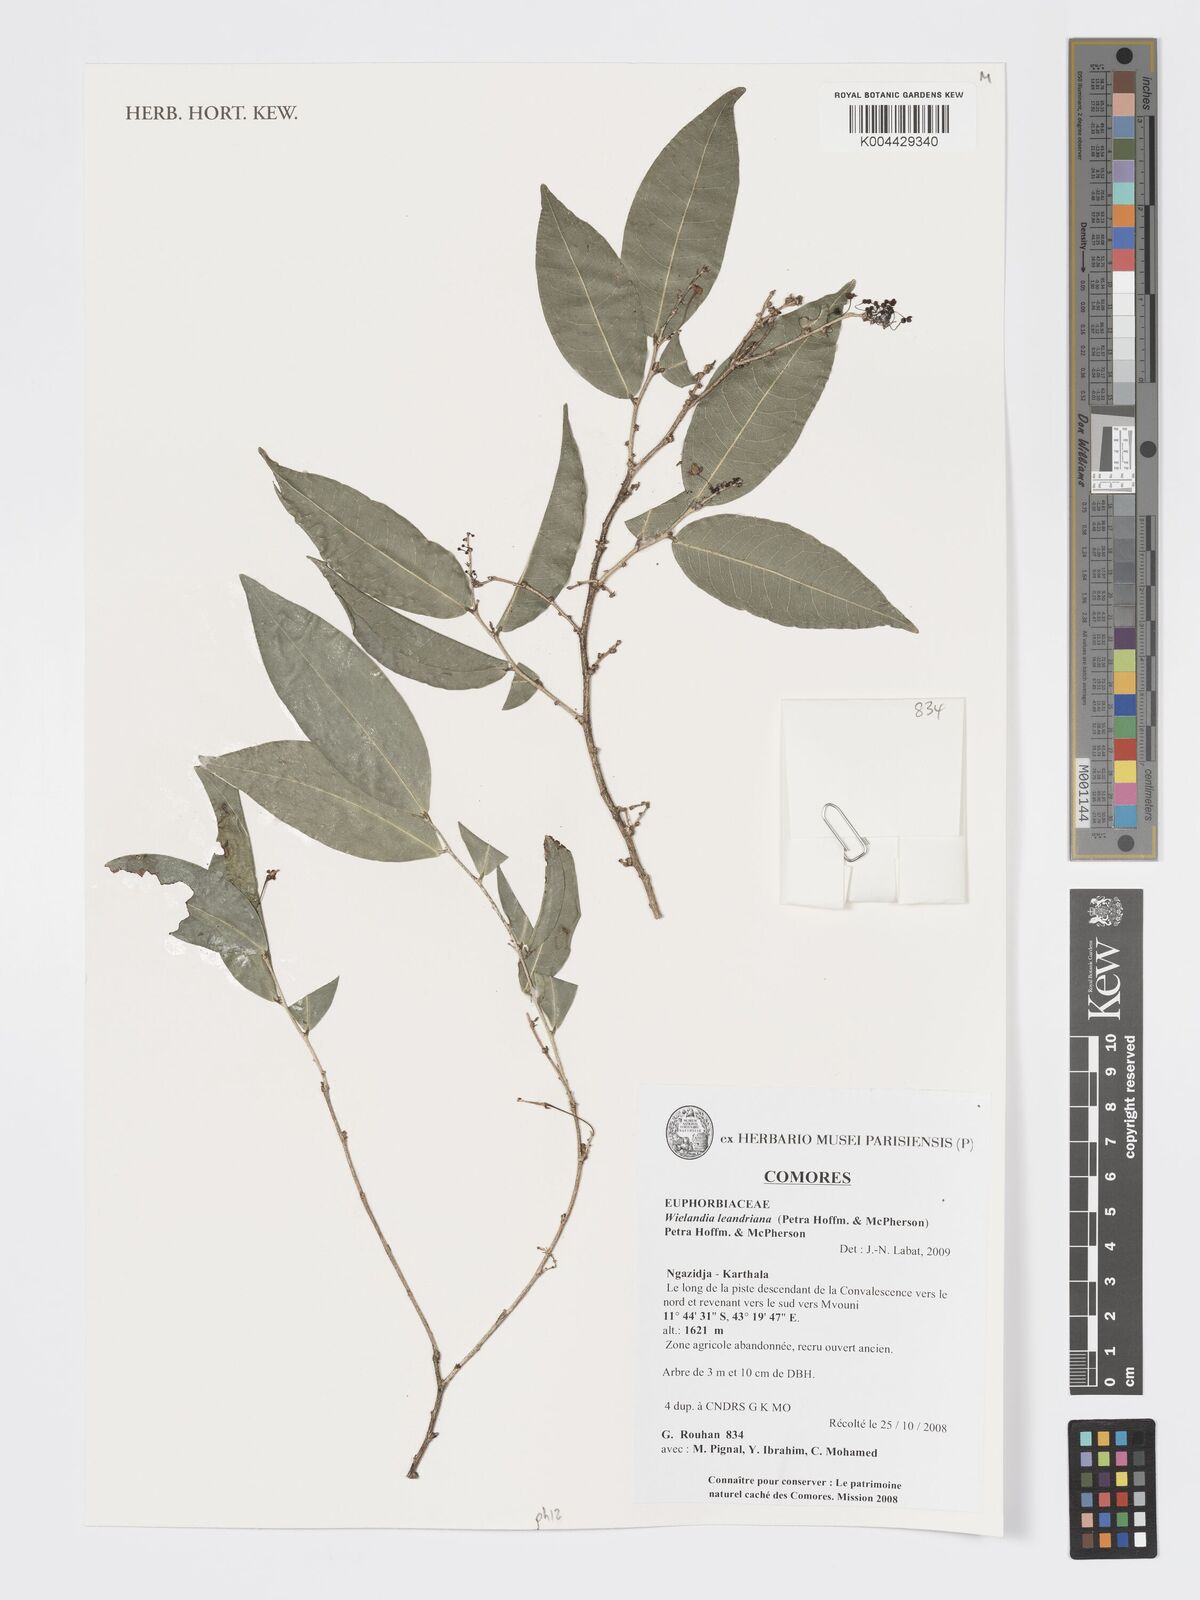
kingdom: Plantae
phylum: Tracheophyta
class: Magnoliopsida
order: Malpighiales
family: Phyllanthaceae
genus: Wielandia
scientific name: Wielandia leandriana
